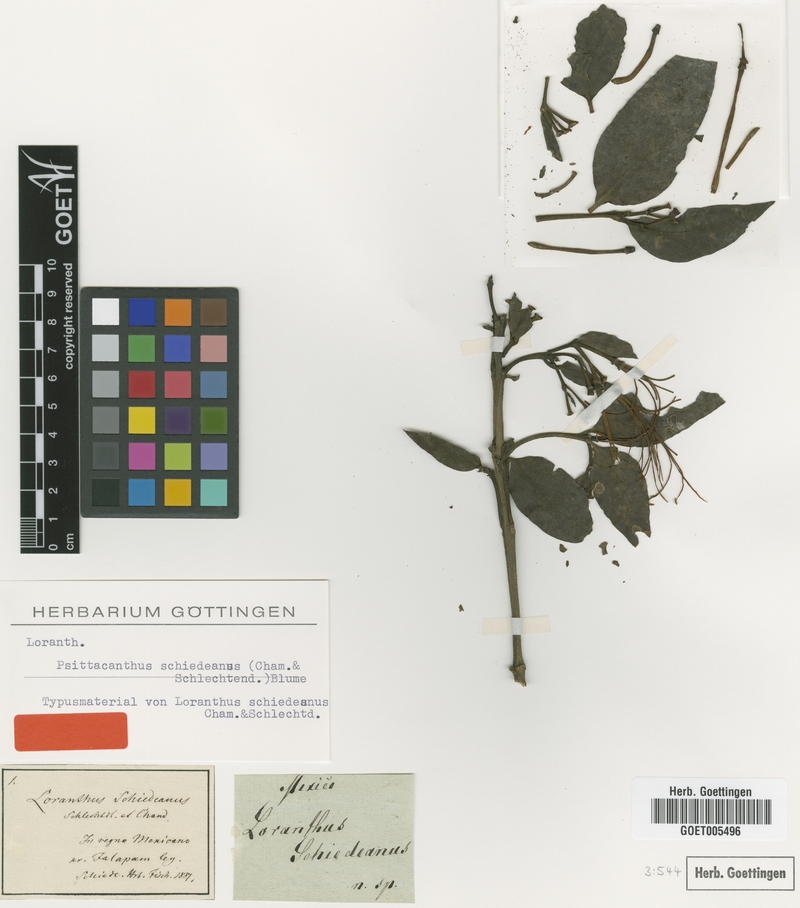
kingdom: Plantae
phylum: Tracheophyta
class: Magnoliopsida
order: Santalales
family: Loranthaceae
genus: Psittacanthus
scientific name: Psittacanthus schiedeanus
